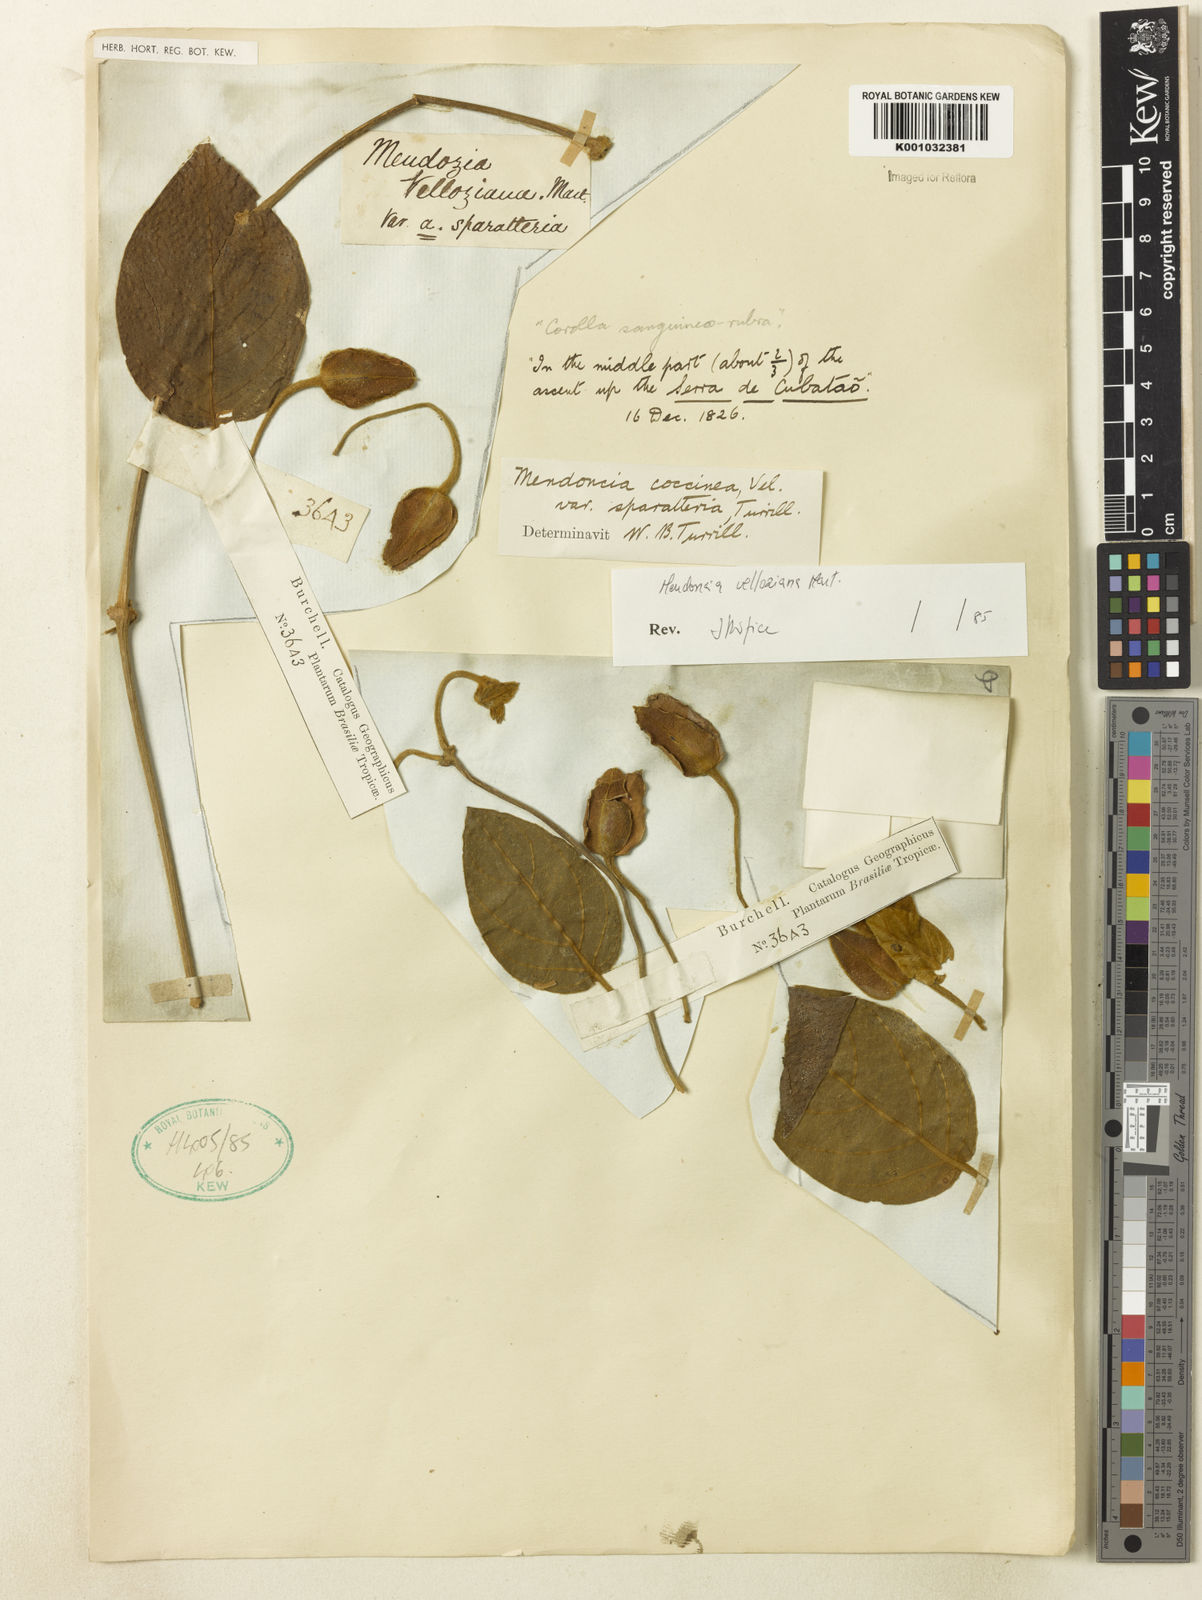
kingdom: Plantae
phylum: Tracheophyta
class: Magnoliopsida
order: Lamiales
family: Acanthaceae
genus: Mendoncia
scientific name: Mendoncia velloziana
